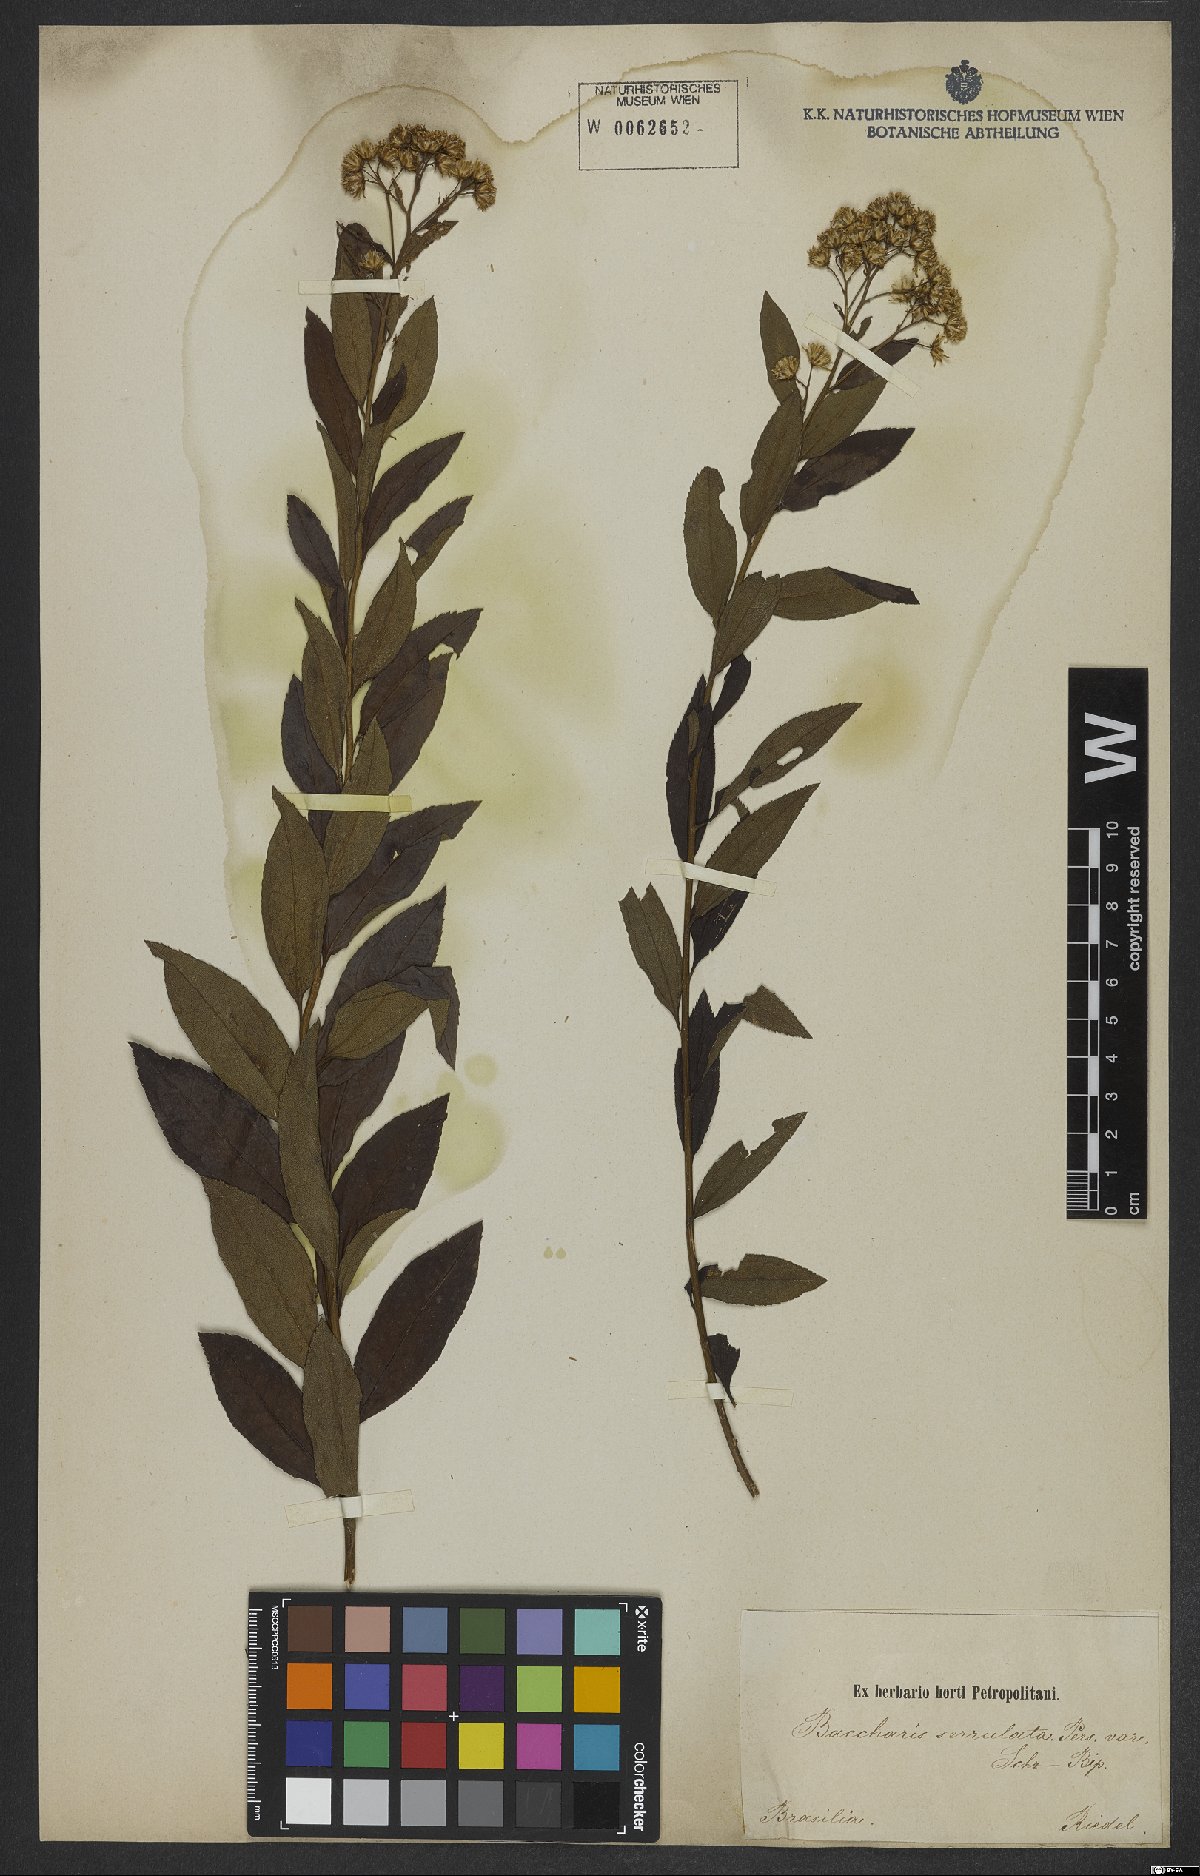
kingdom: Plantae
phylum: Tracheophyta
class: Magnoliopsida
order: Asterales
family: Asteraceae
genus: Archibaccharis
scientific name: Archibaccharis vulneraria
